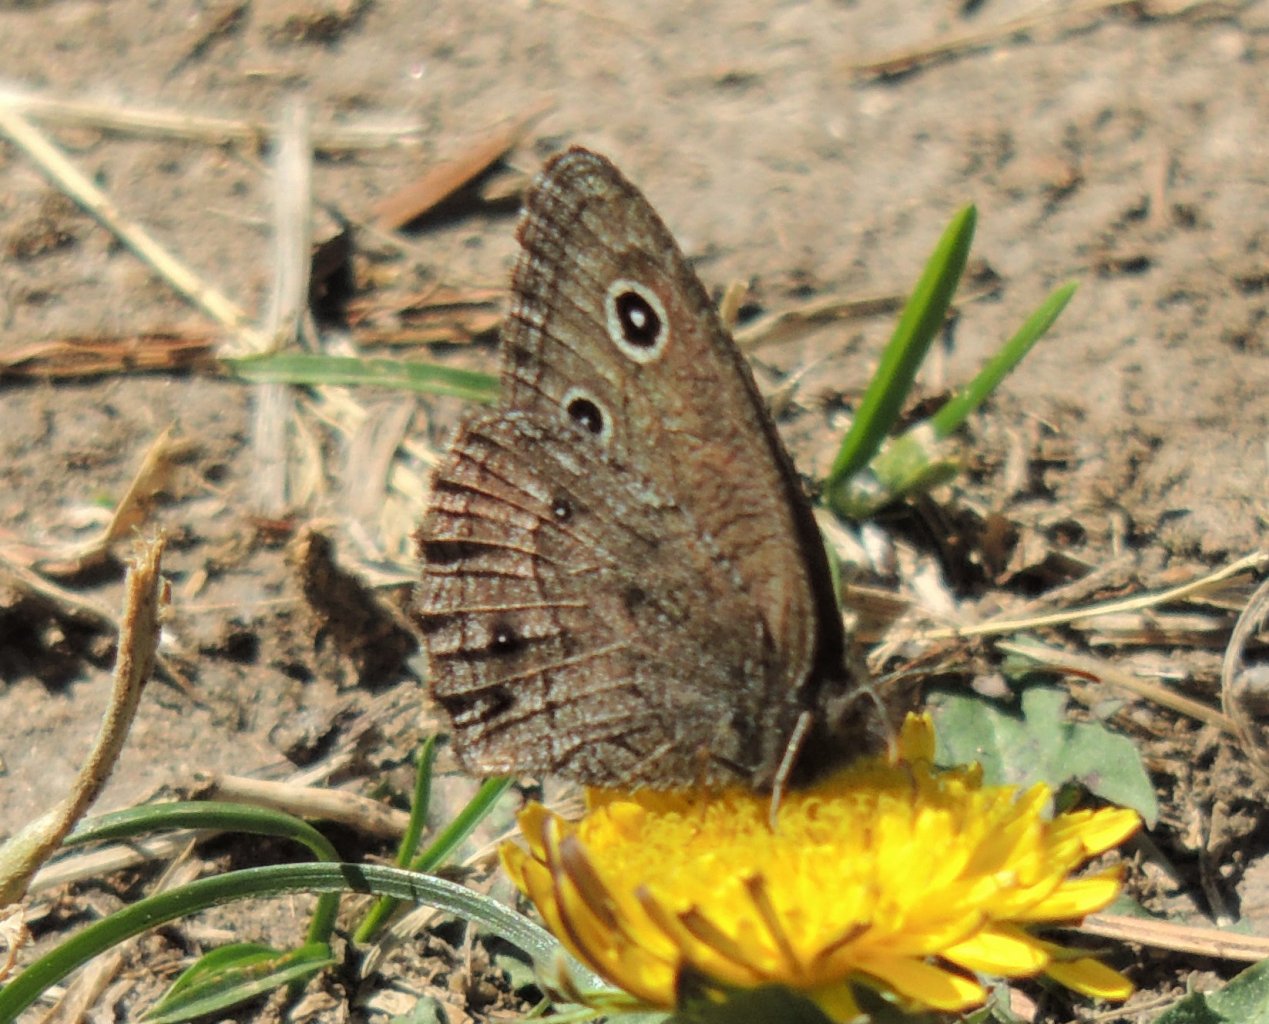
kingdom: Animalia
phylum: Arthropoda
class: Insecta
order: Lepidoptera
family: Nymphalidae
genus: Cercyonis
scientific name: Cercyonis sthenele
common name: Great Basin Wood-Nymph
